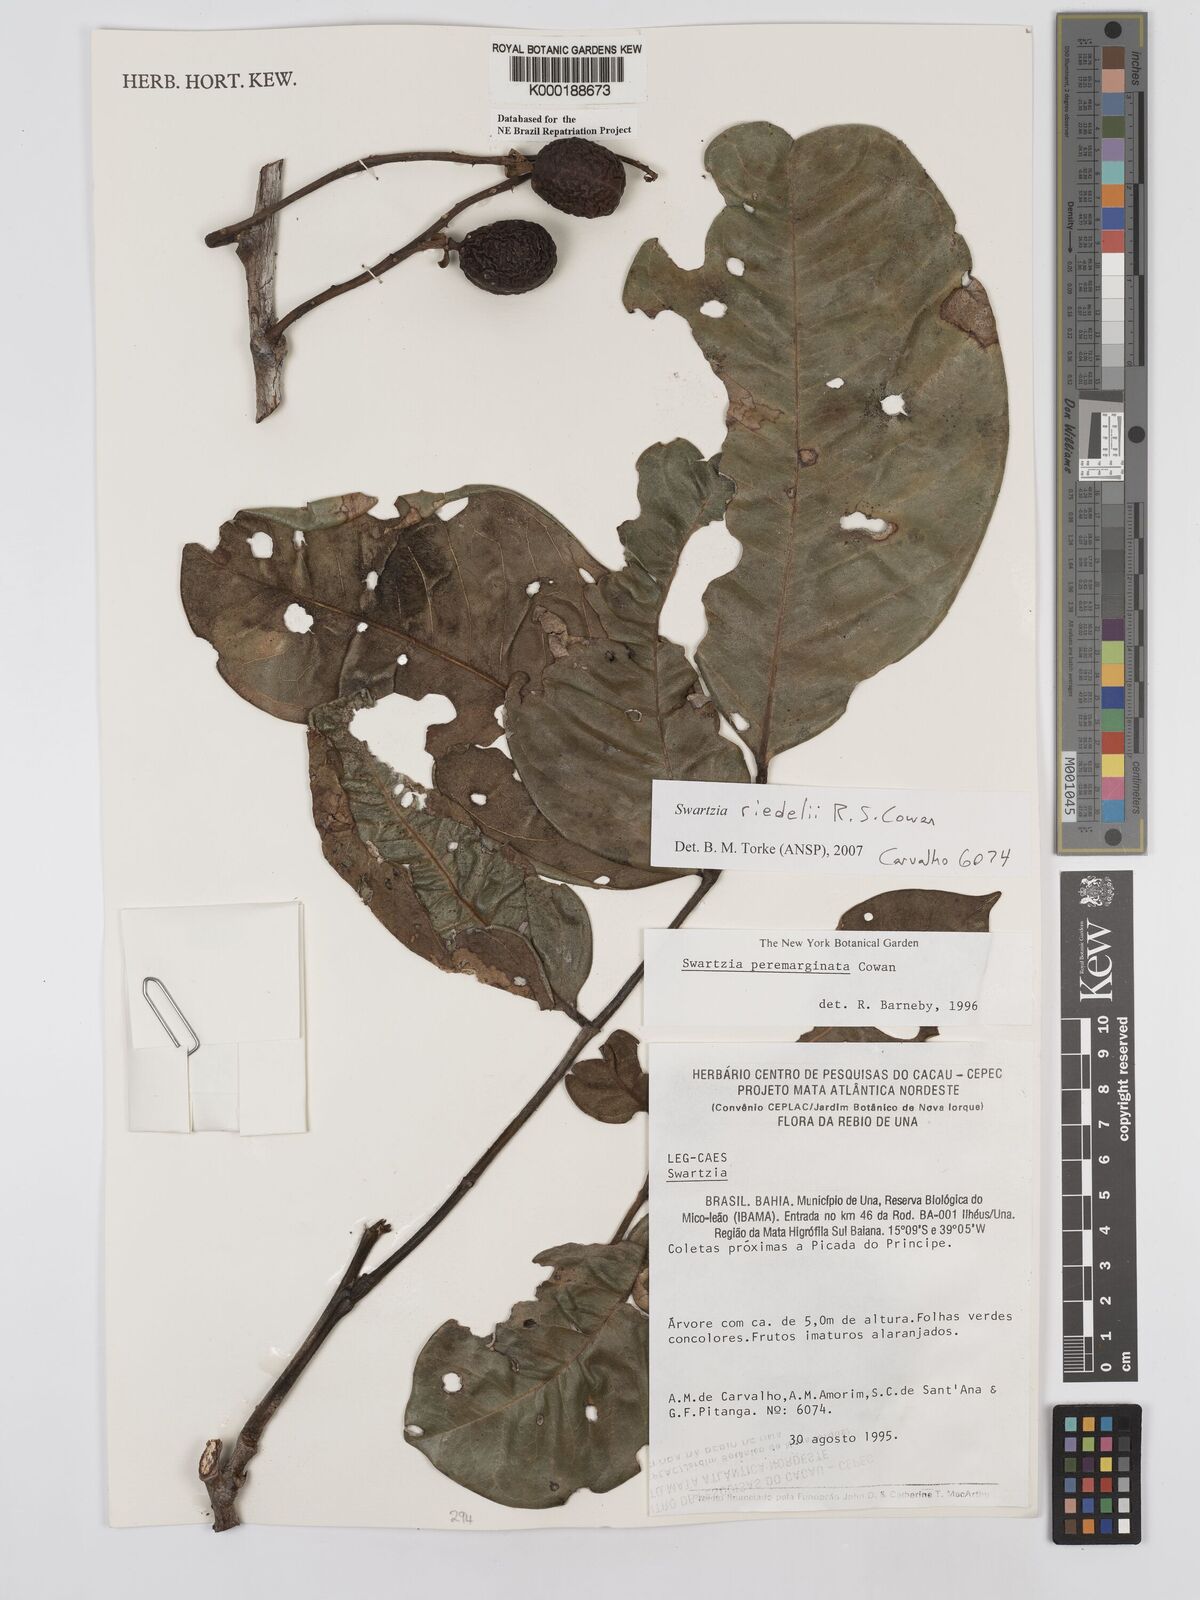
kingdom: Plantae
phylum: Tracheophyta
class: Magnoliopsida
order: Fabales
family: Fabaceae
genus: Swartzia
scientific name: Swartzia riedelii
